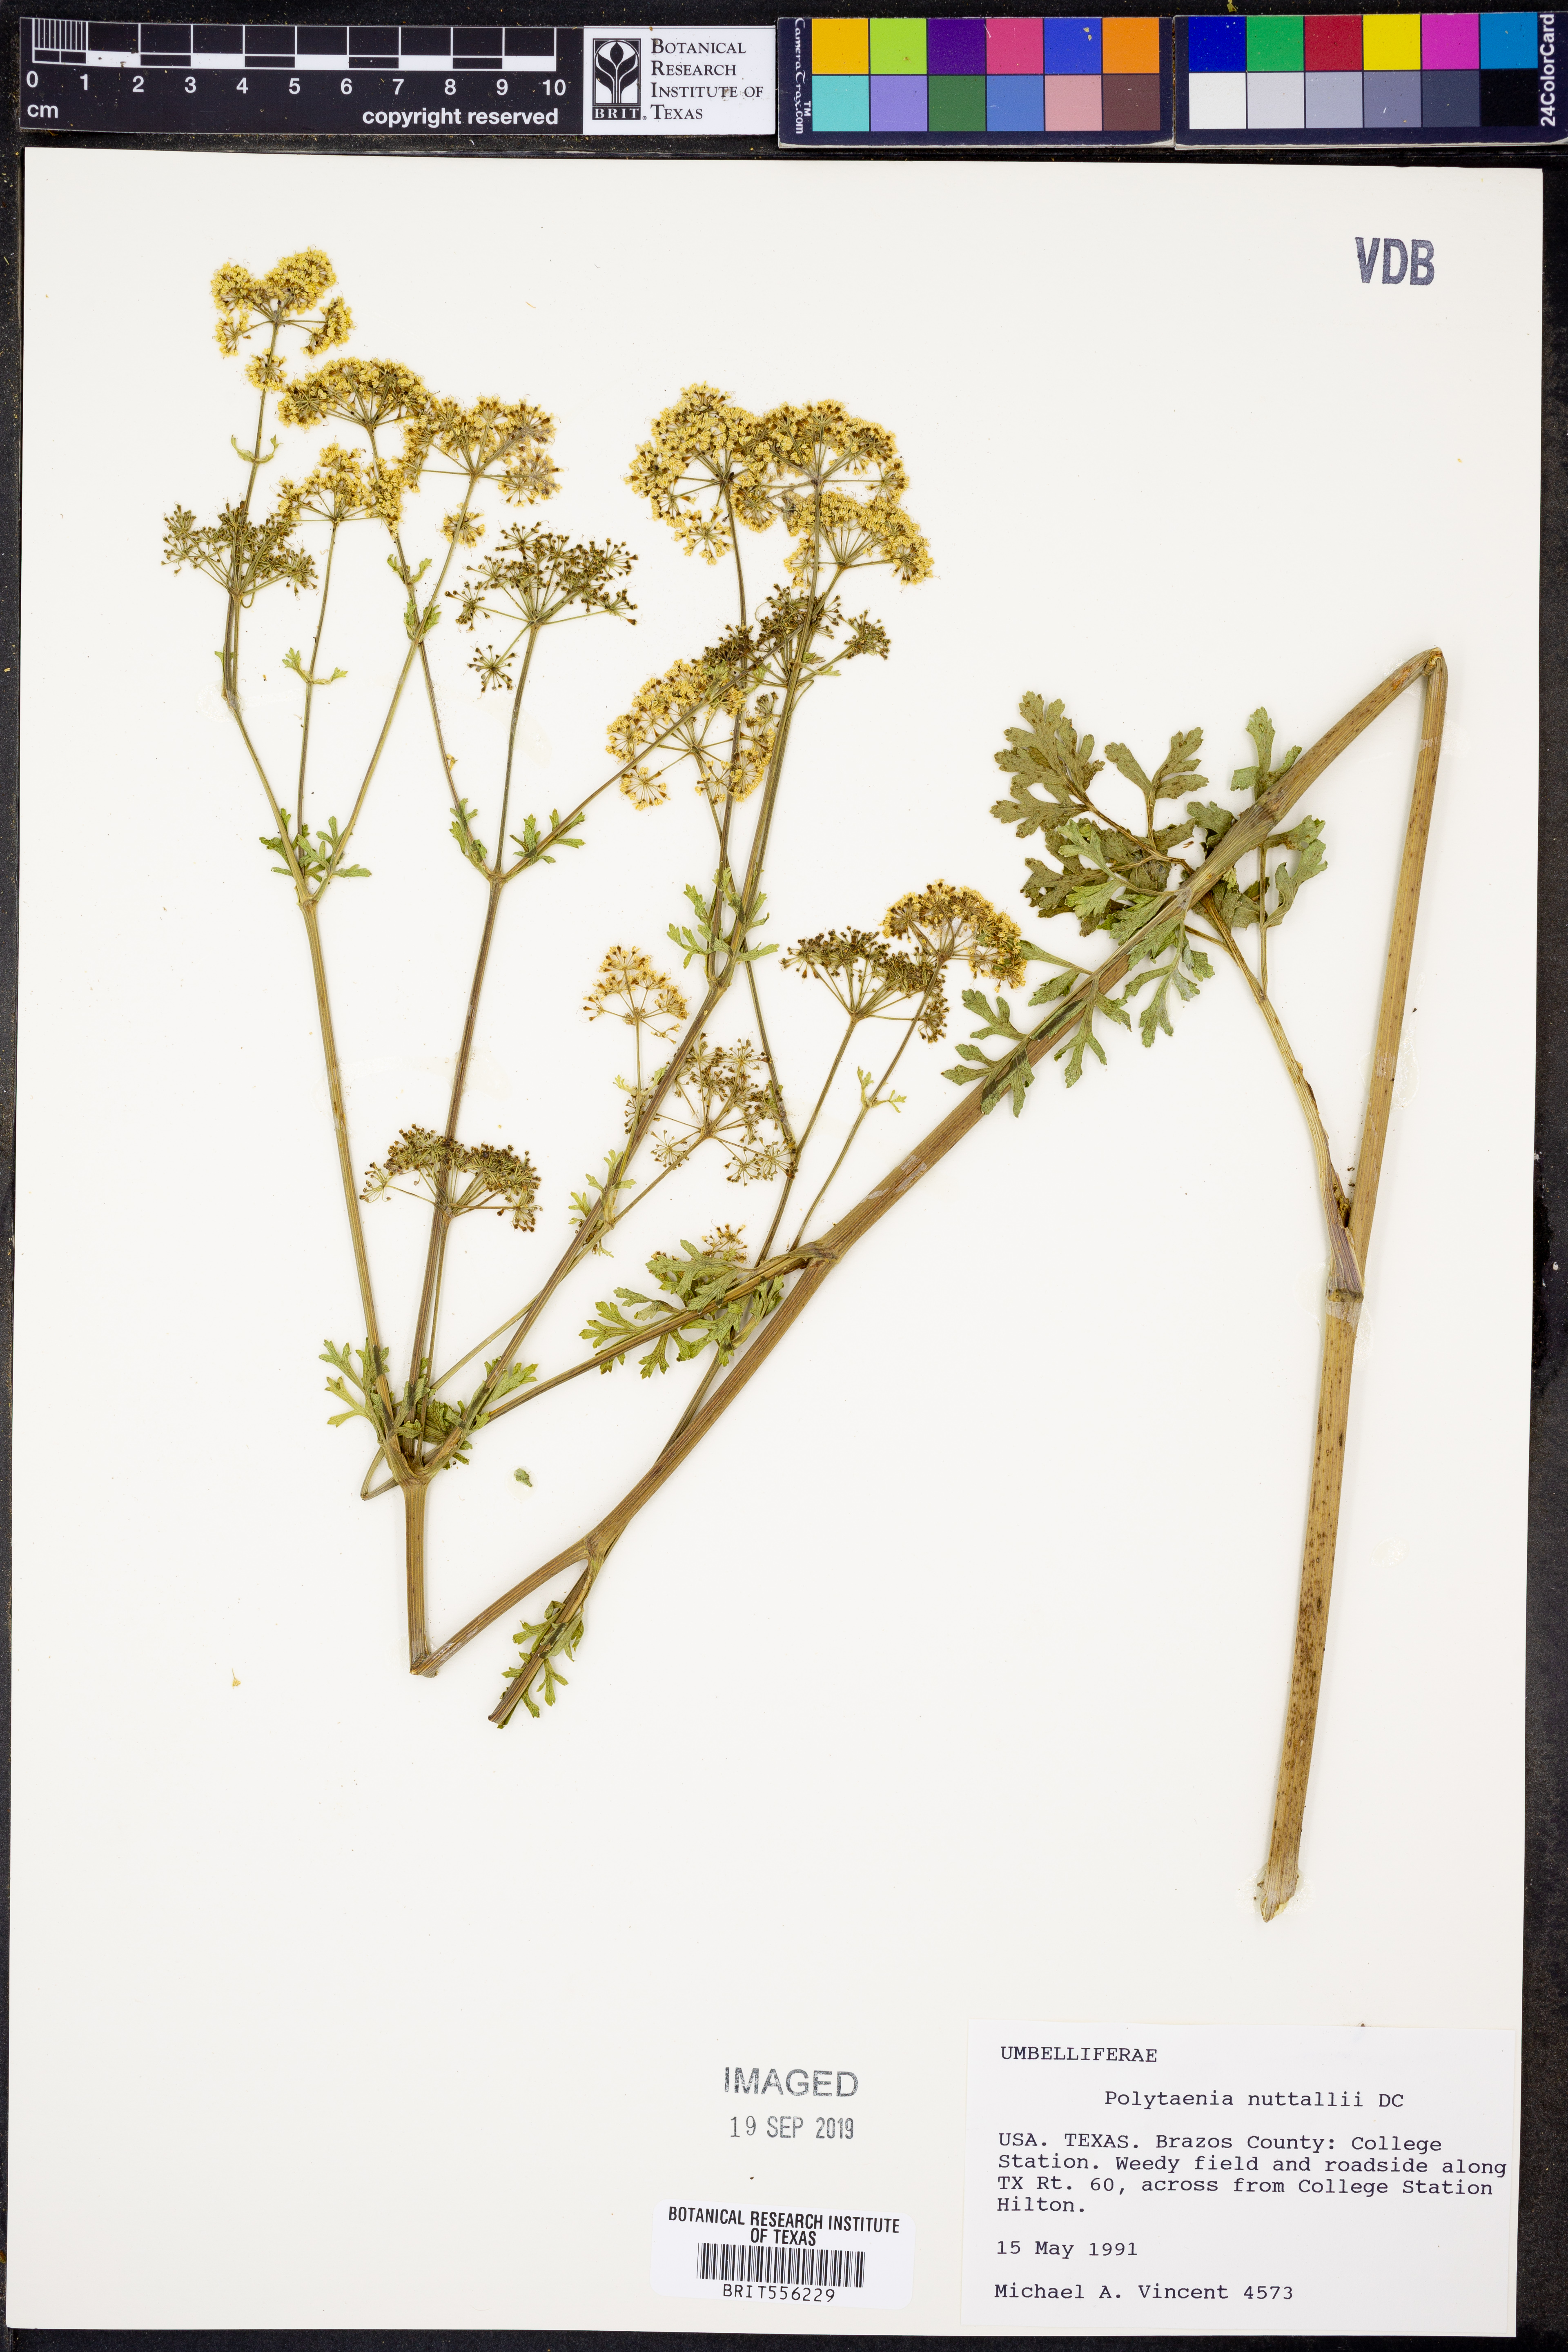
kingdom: Plantae
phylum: Tracheophyta
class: Magnoliopsida
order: Apiales
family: Apiaceae
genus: Polytaenia
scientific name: Polytaenia nuttallii
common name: Prairie-parsley
